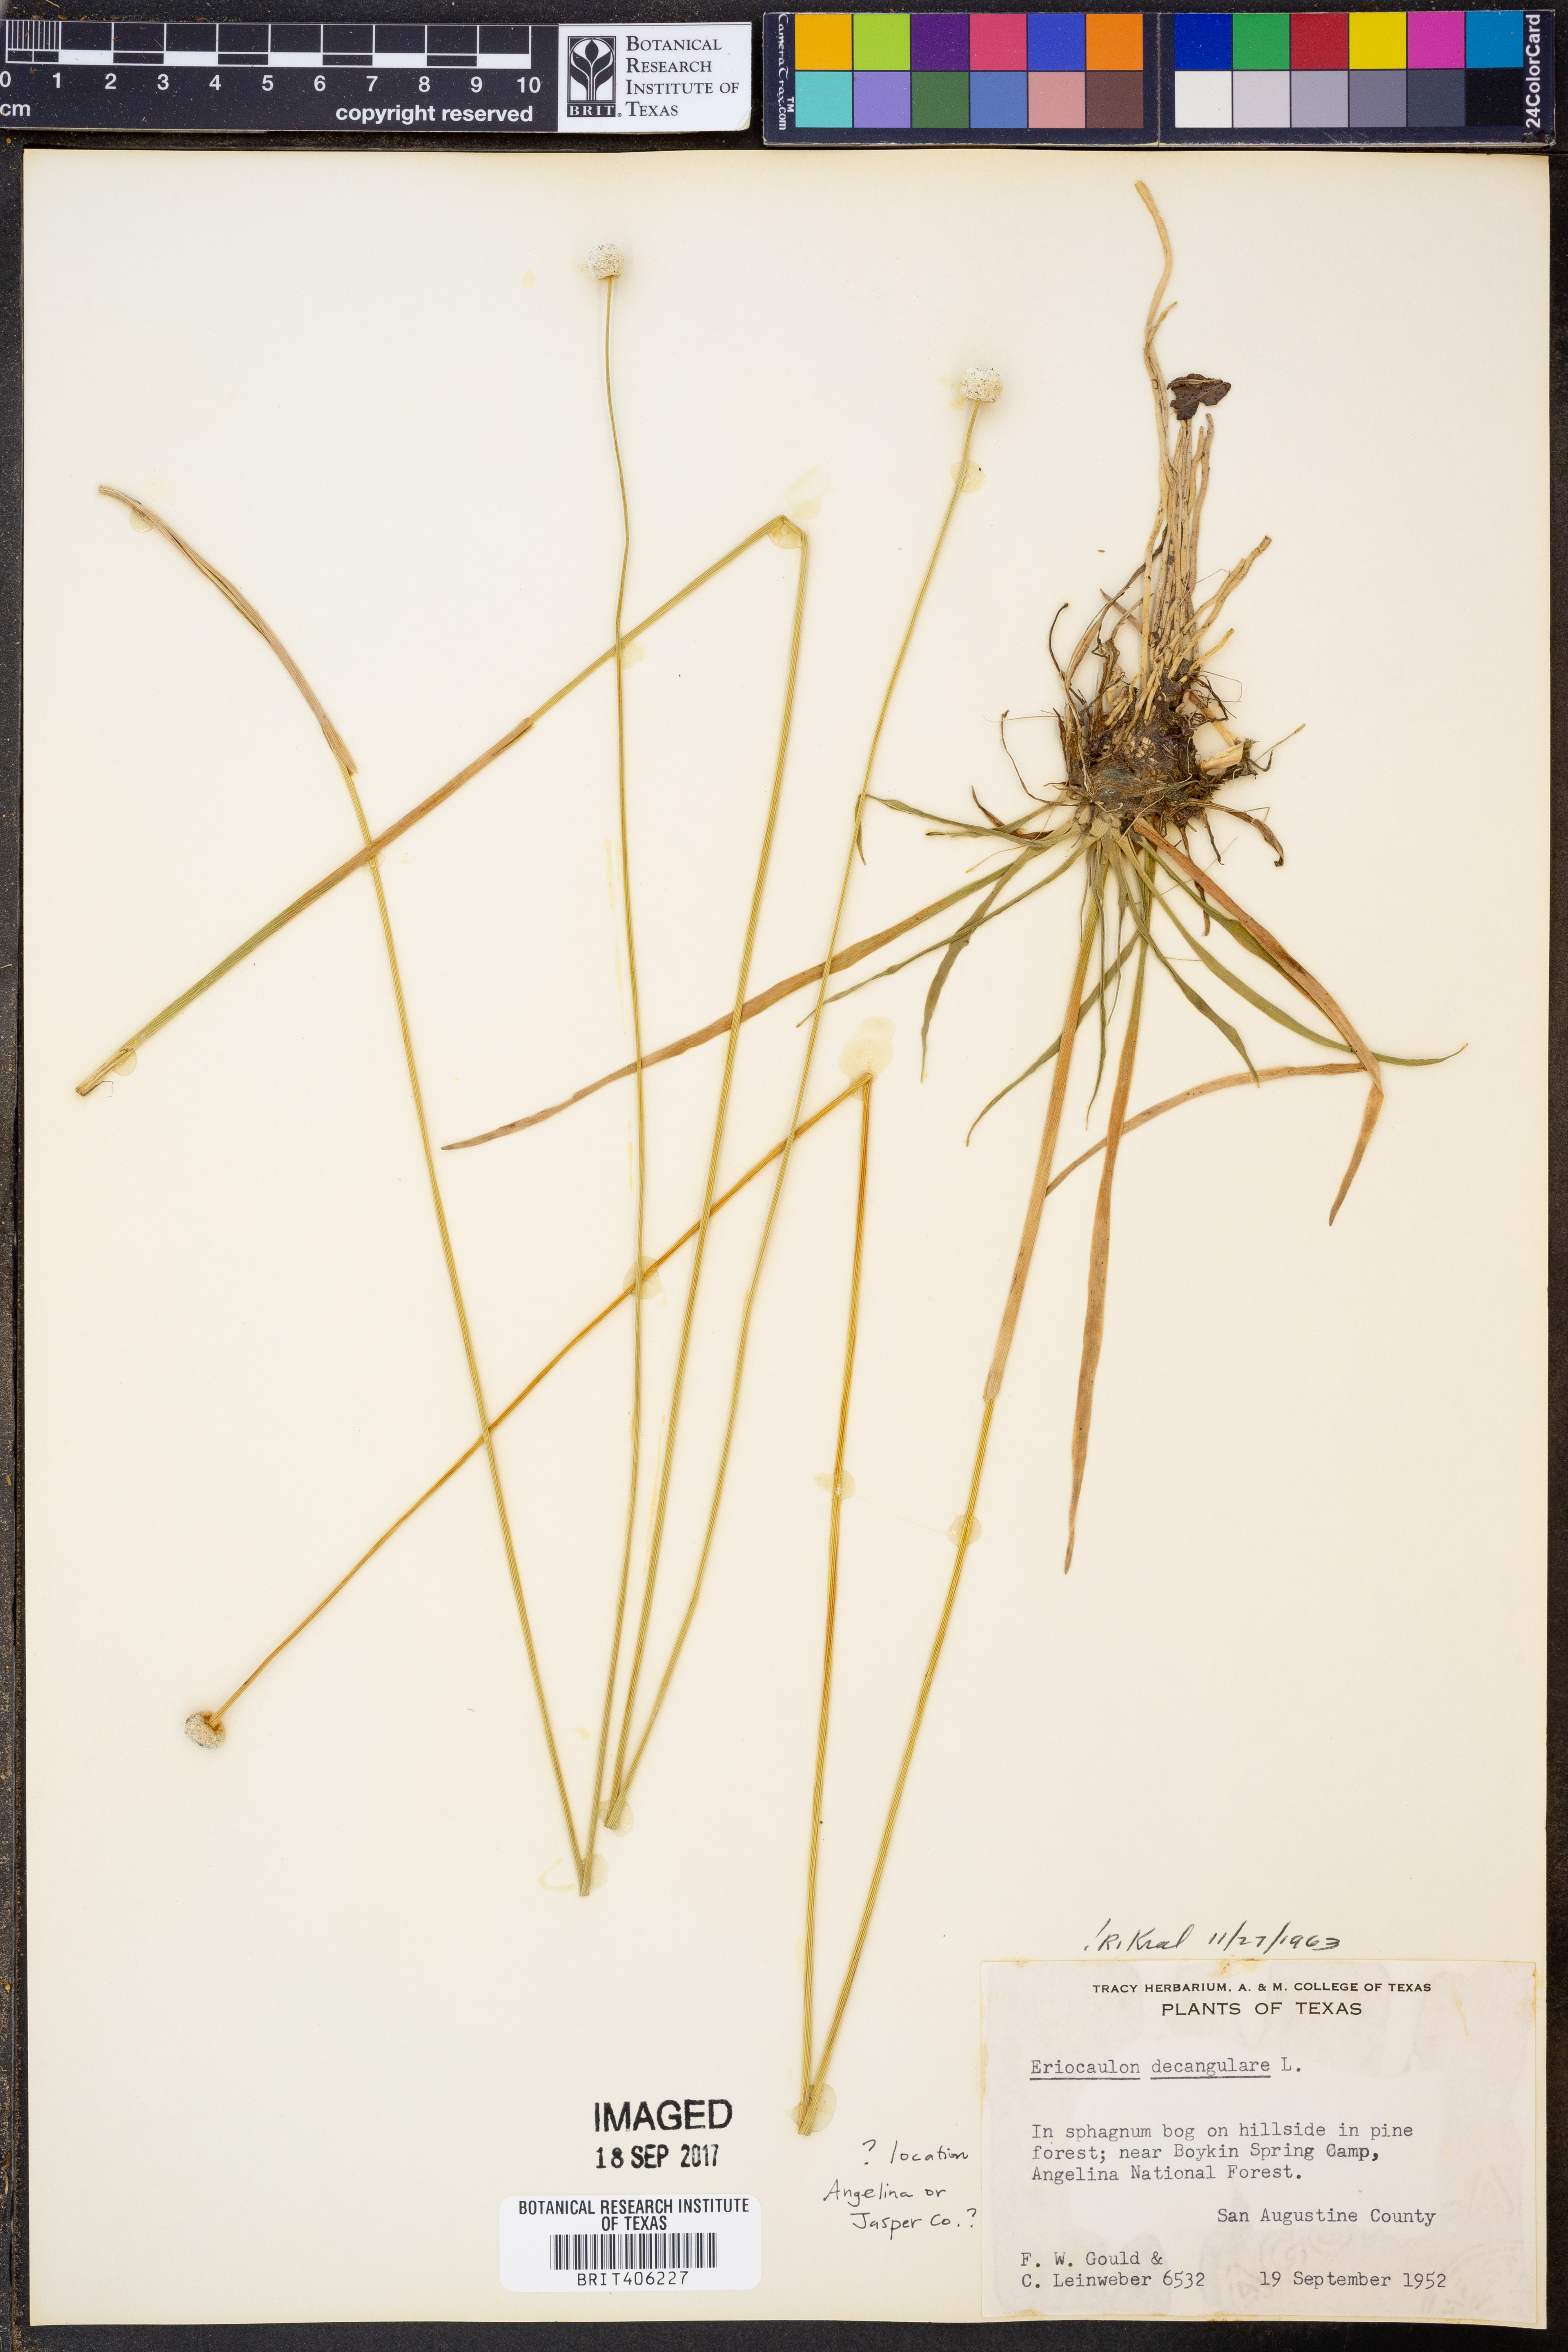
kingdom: Plantae
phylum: Tracheophyta
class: Liliopsida
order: Poales
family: Eriocaulaceae
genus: Eriocaulon
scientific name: Eriocaulon decangulare
